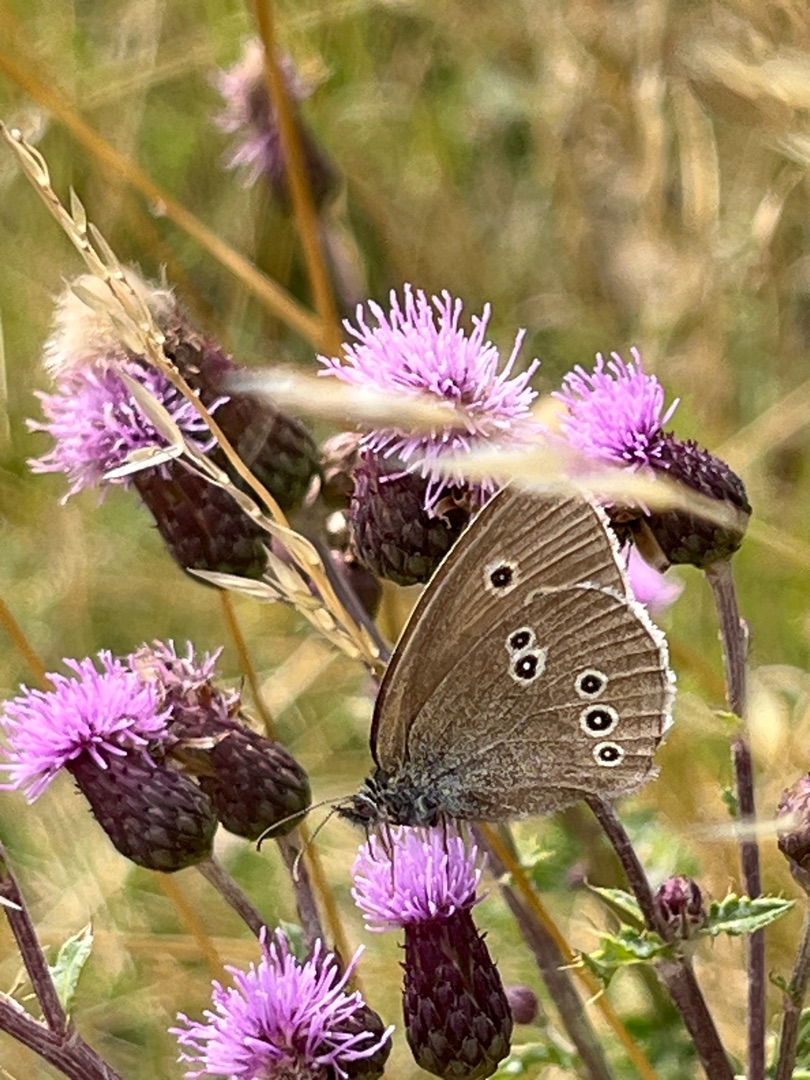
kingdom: Animalia
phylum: Arthropoda
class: Insecta
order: Lepidoptera
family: Nymphalidae
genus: Aphantopus
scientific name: Aphantopus hyperantus
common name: Engrandøje
